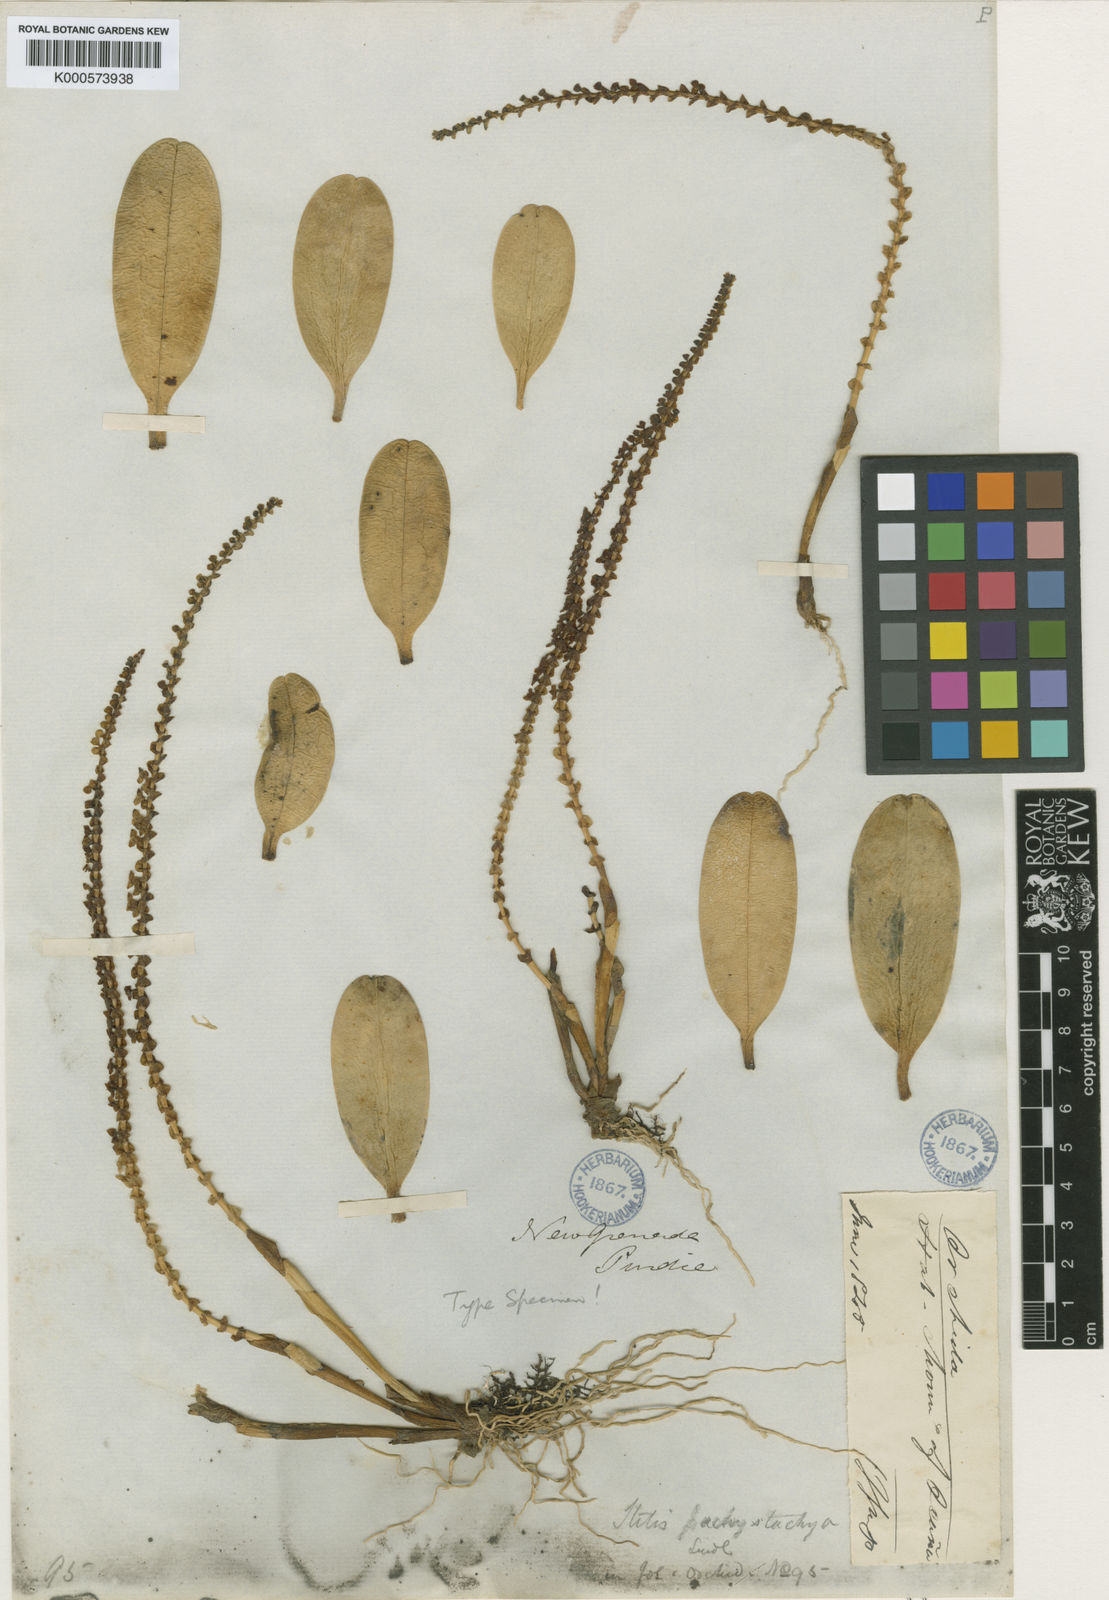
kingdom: Plantae
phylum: Tracheophyta
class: Liliopsida
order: Asparagales
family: Orchidaceae
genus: Stelis
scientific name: Stelis pachystachya
